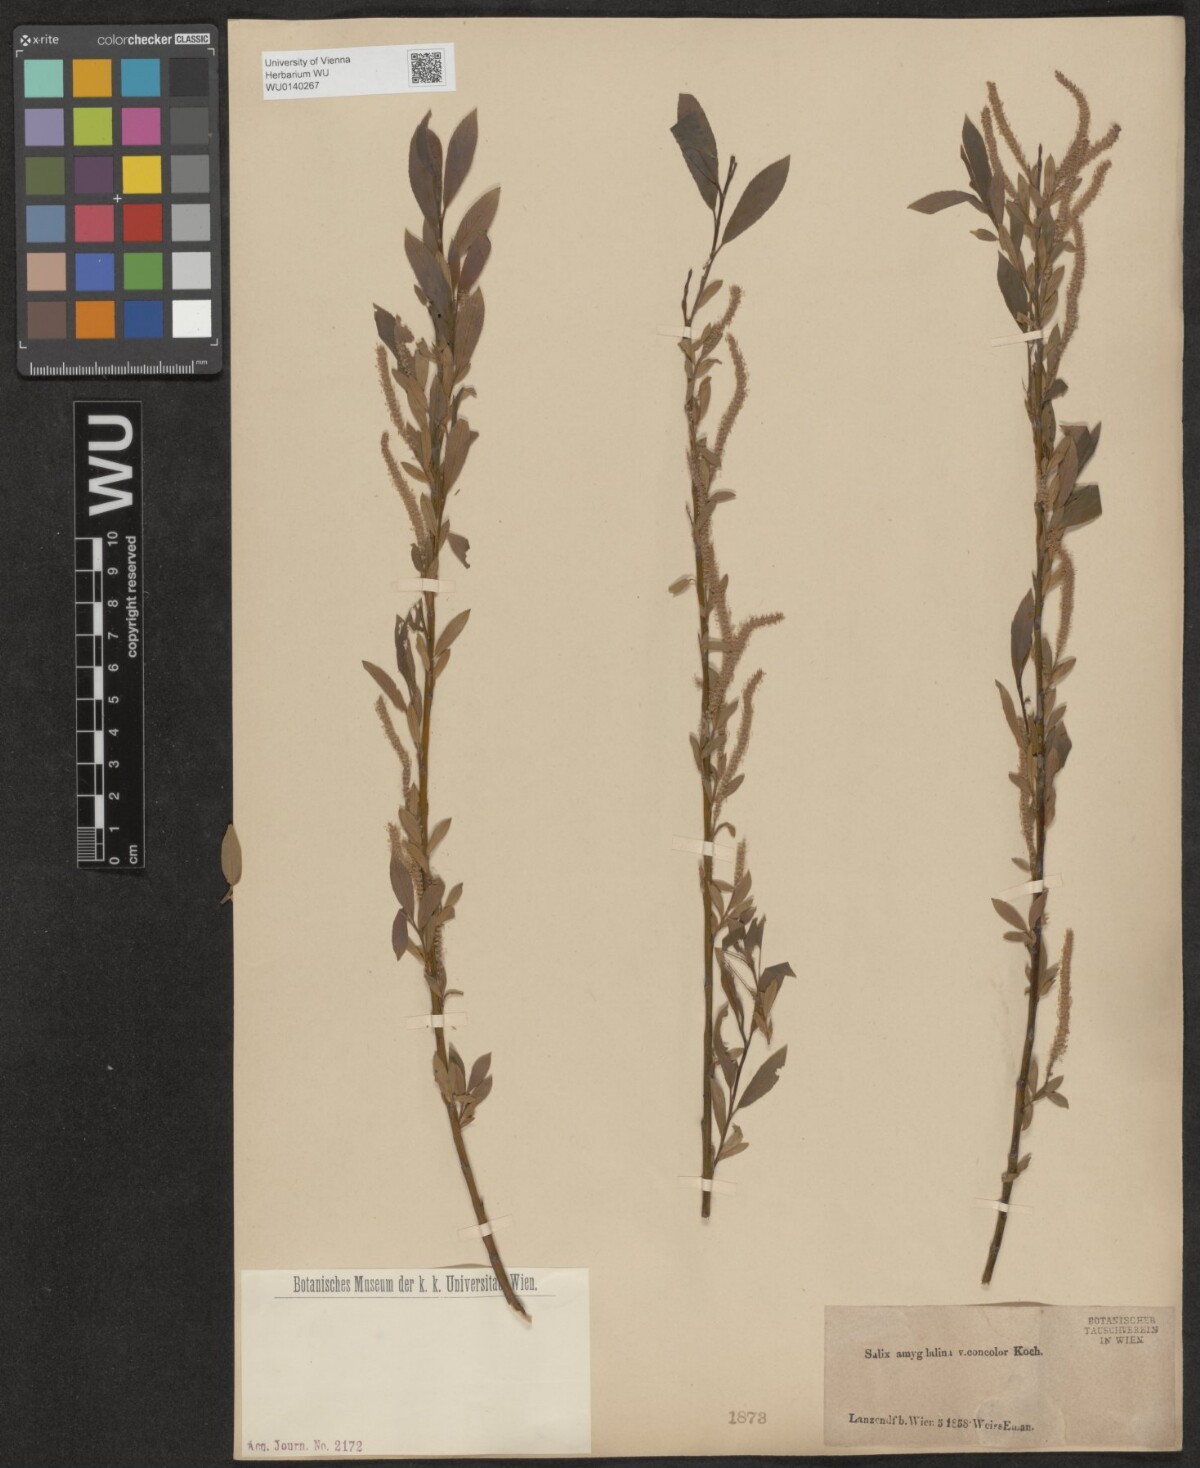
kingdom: Plantae
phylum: Tracheophyta
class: Magnoliopsida
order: Malpighiales
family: Salicaceae
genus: Salix
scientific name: Salix triandra
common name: Almond willow
